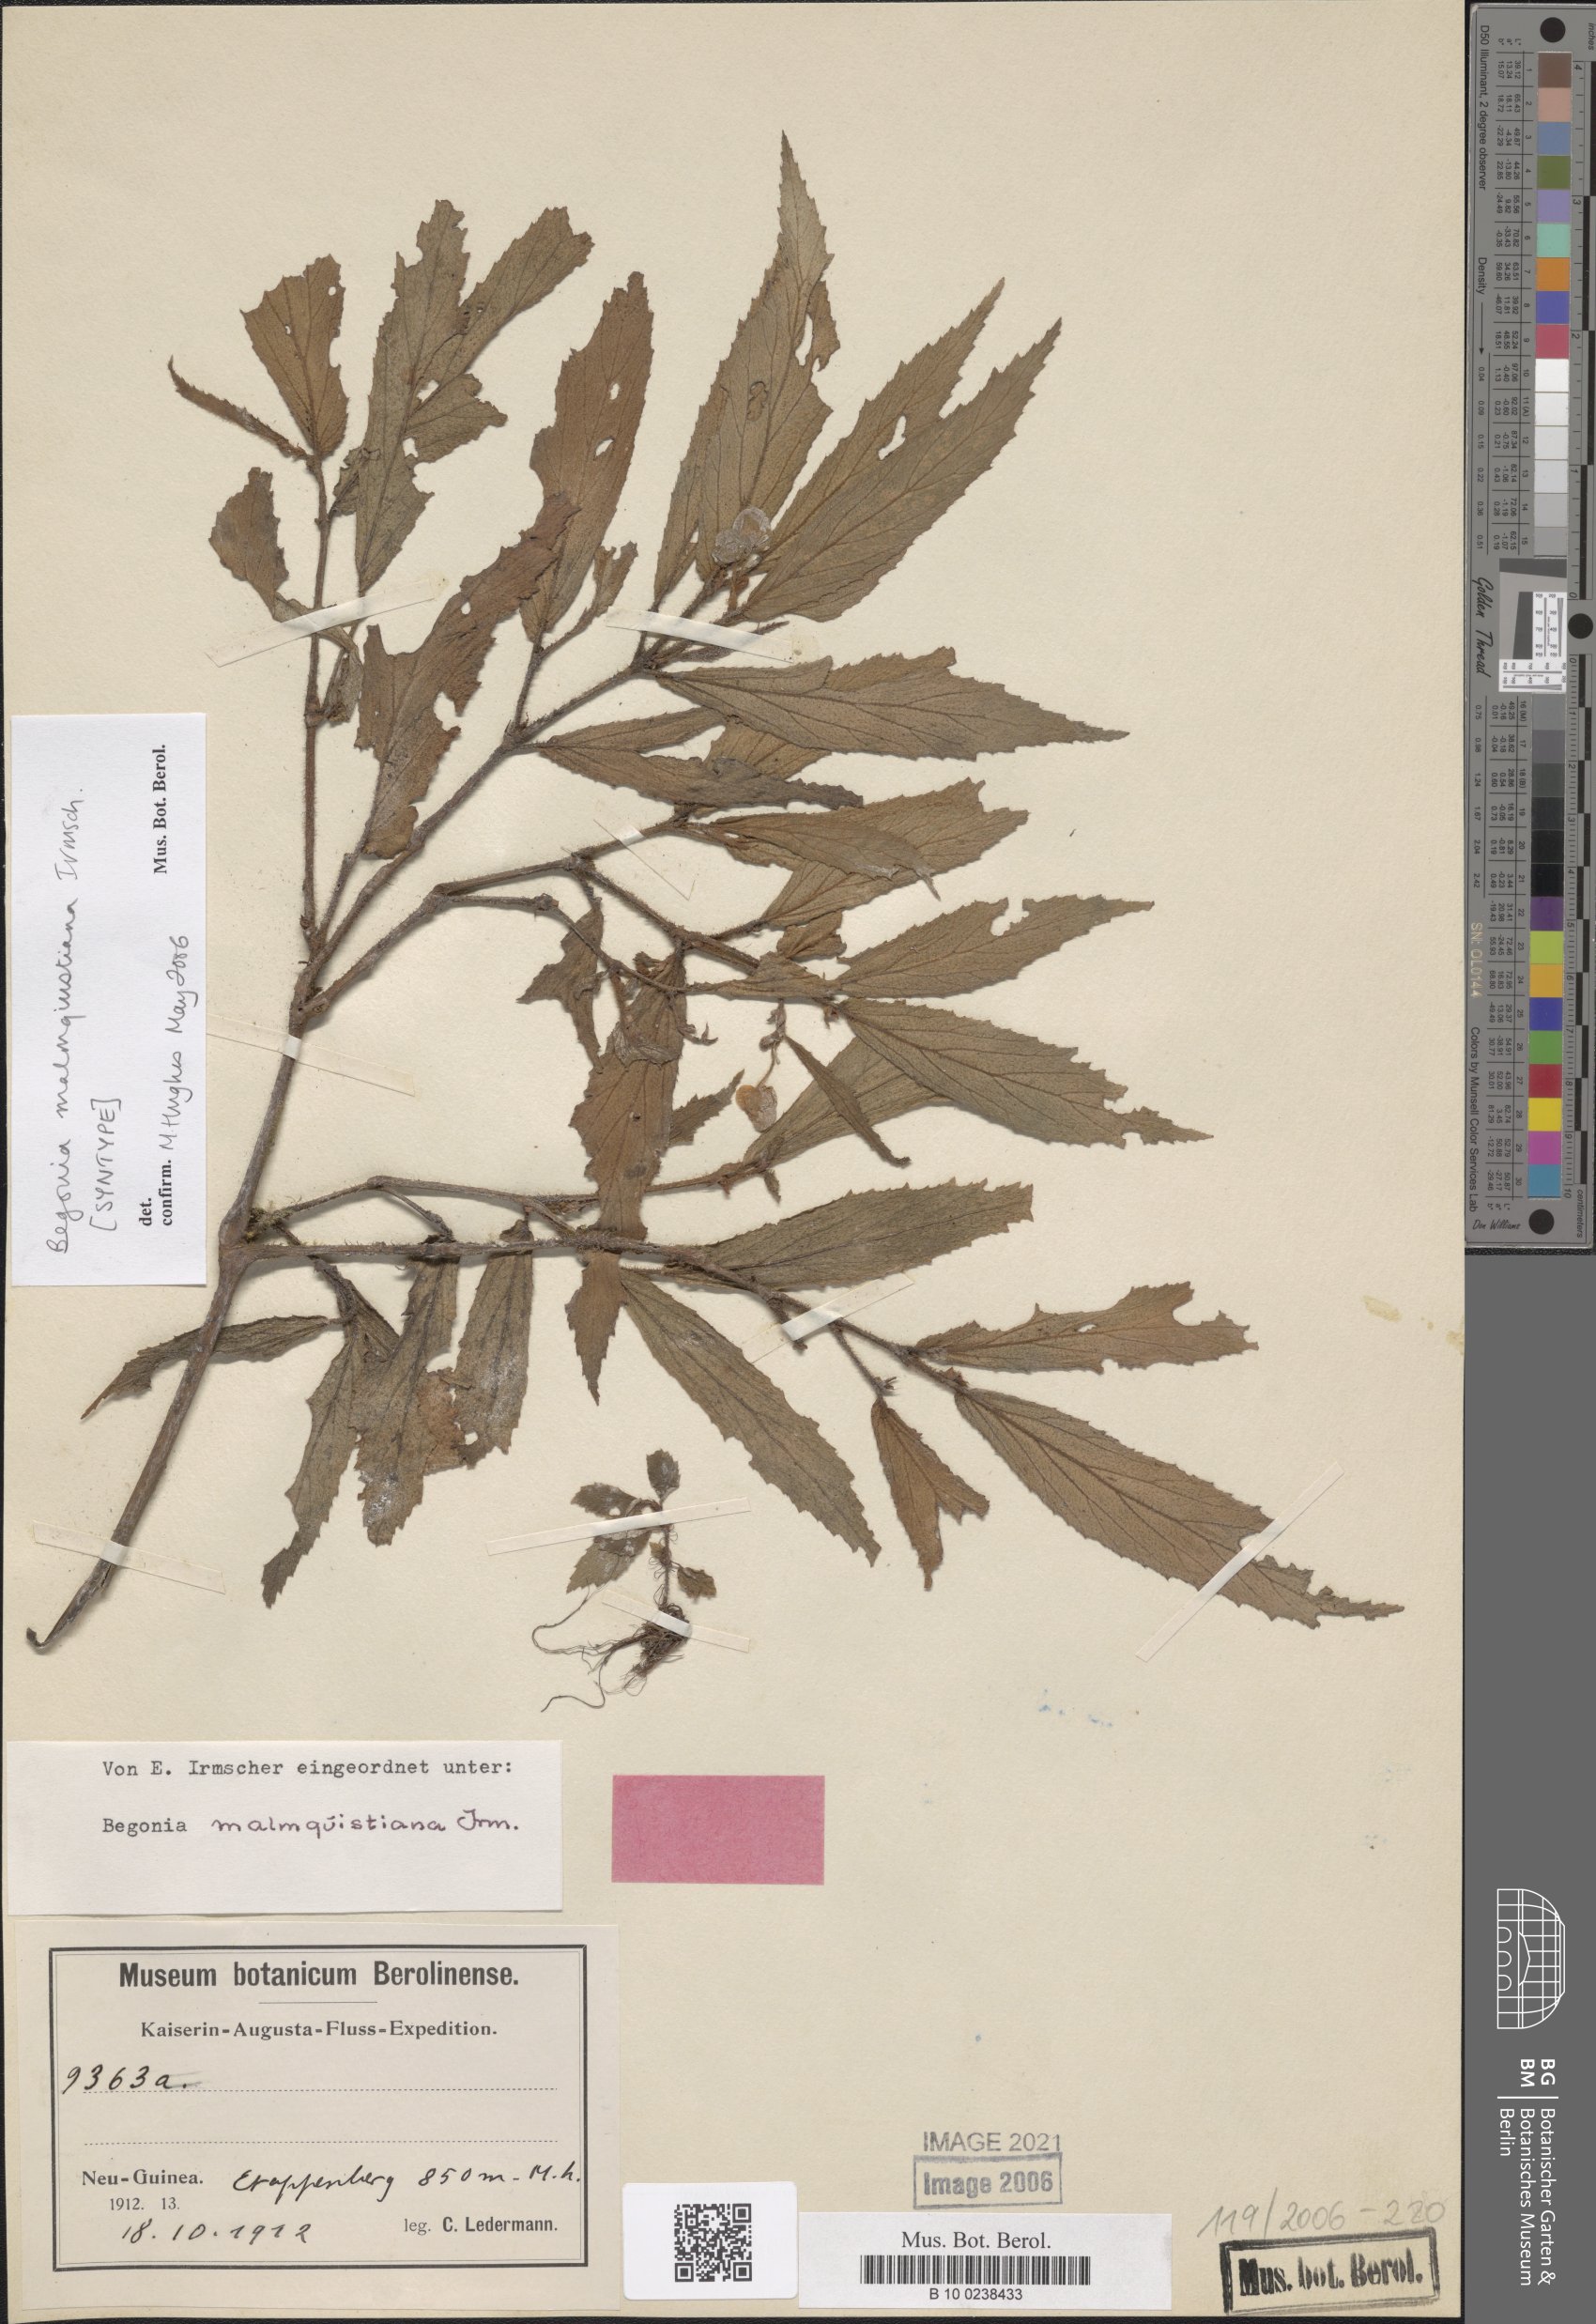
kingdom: Plantae
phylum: Tracheophyta
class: Magnoliopsida
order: Cucurbitales
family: Begoniaceae
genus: Begonia
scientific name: Begonia malmquistiana
